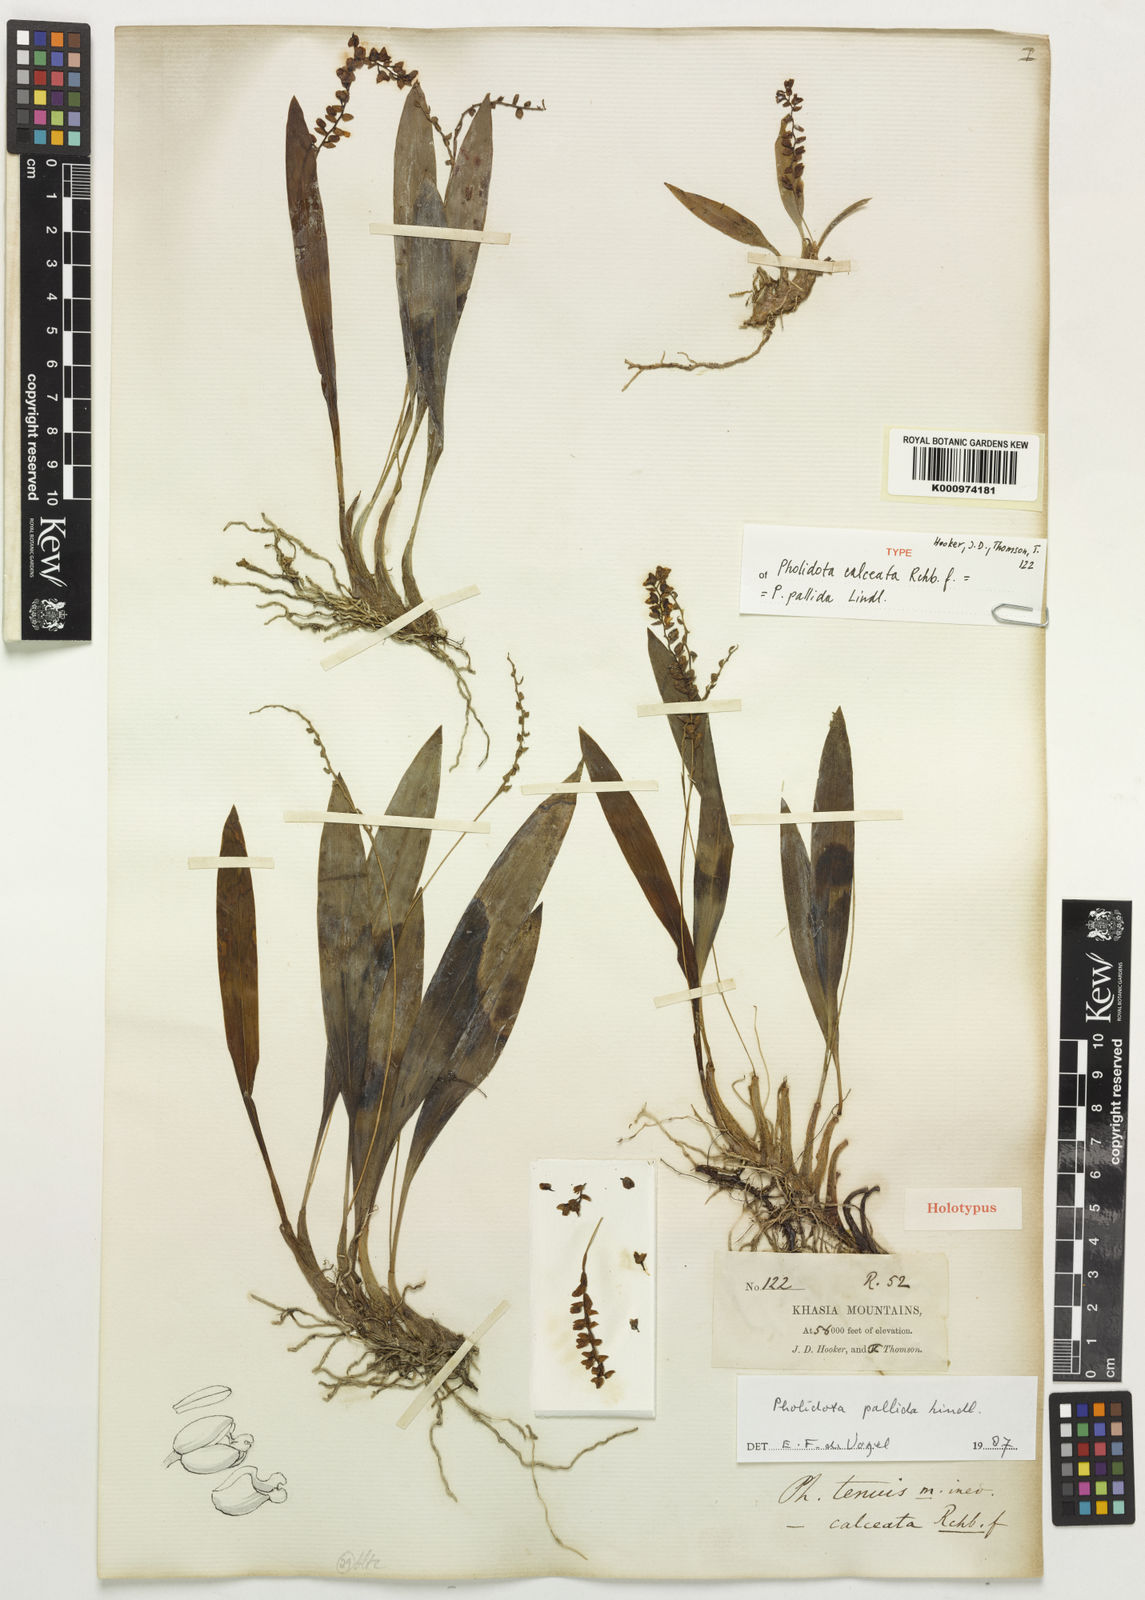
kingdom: Plantae
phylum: Tracheophyta
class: Liliopsida
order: Asparagales
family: Orchidaceae
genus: Coelogyne
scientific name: Coelogyne pallida
